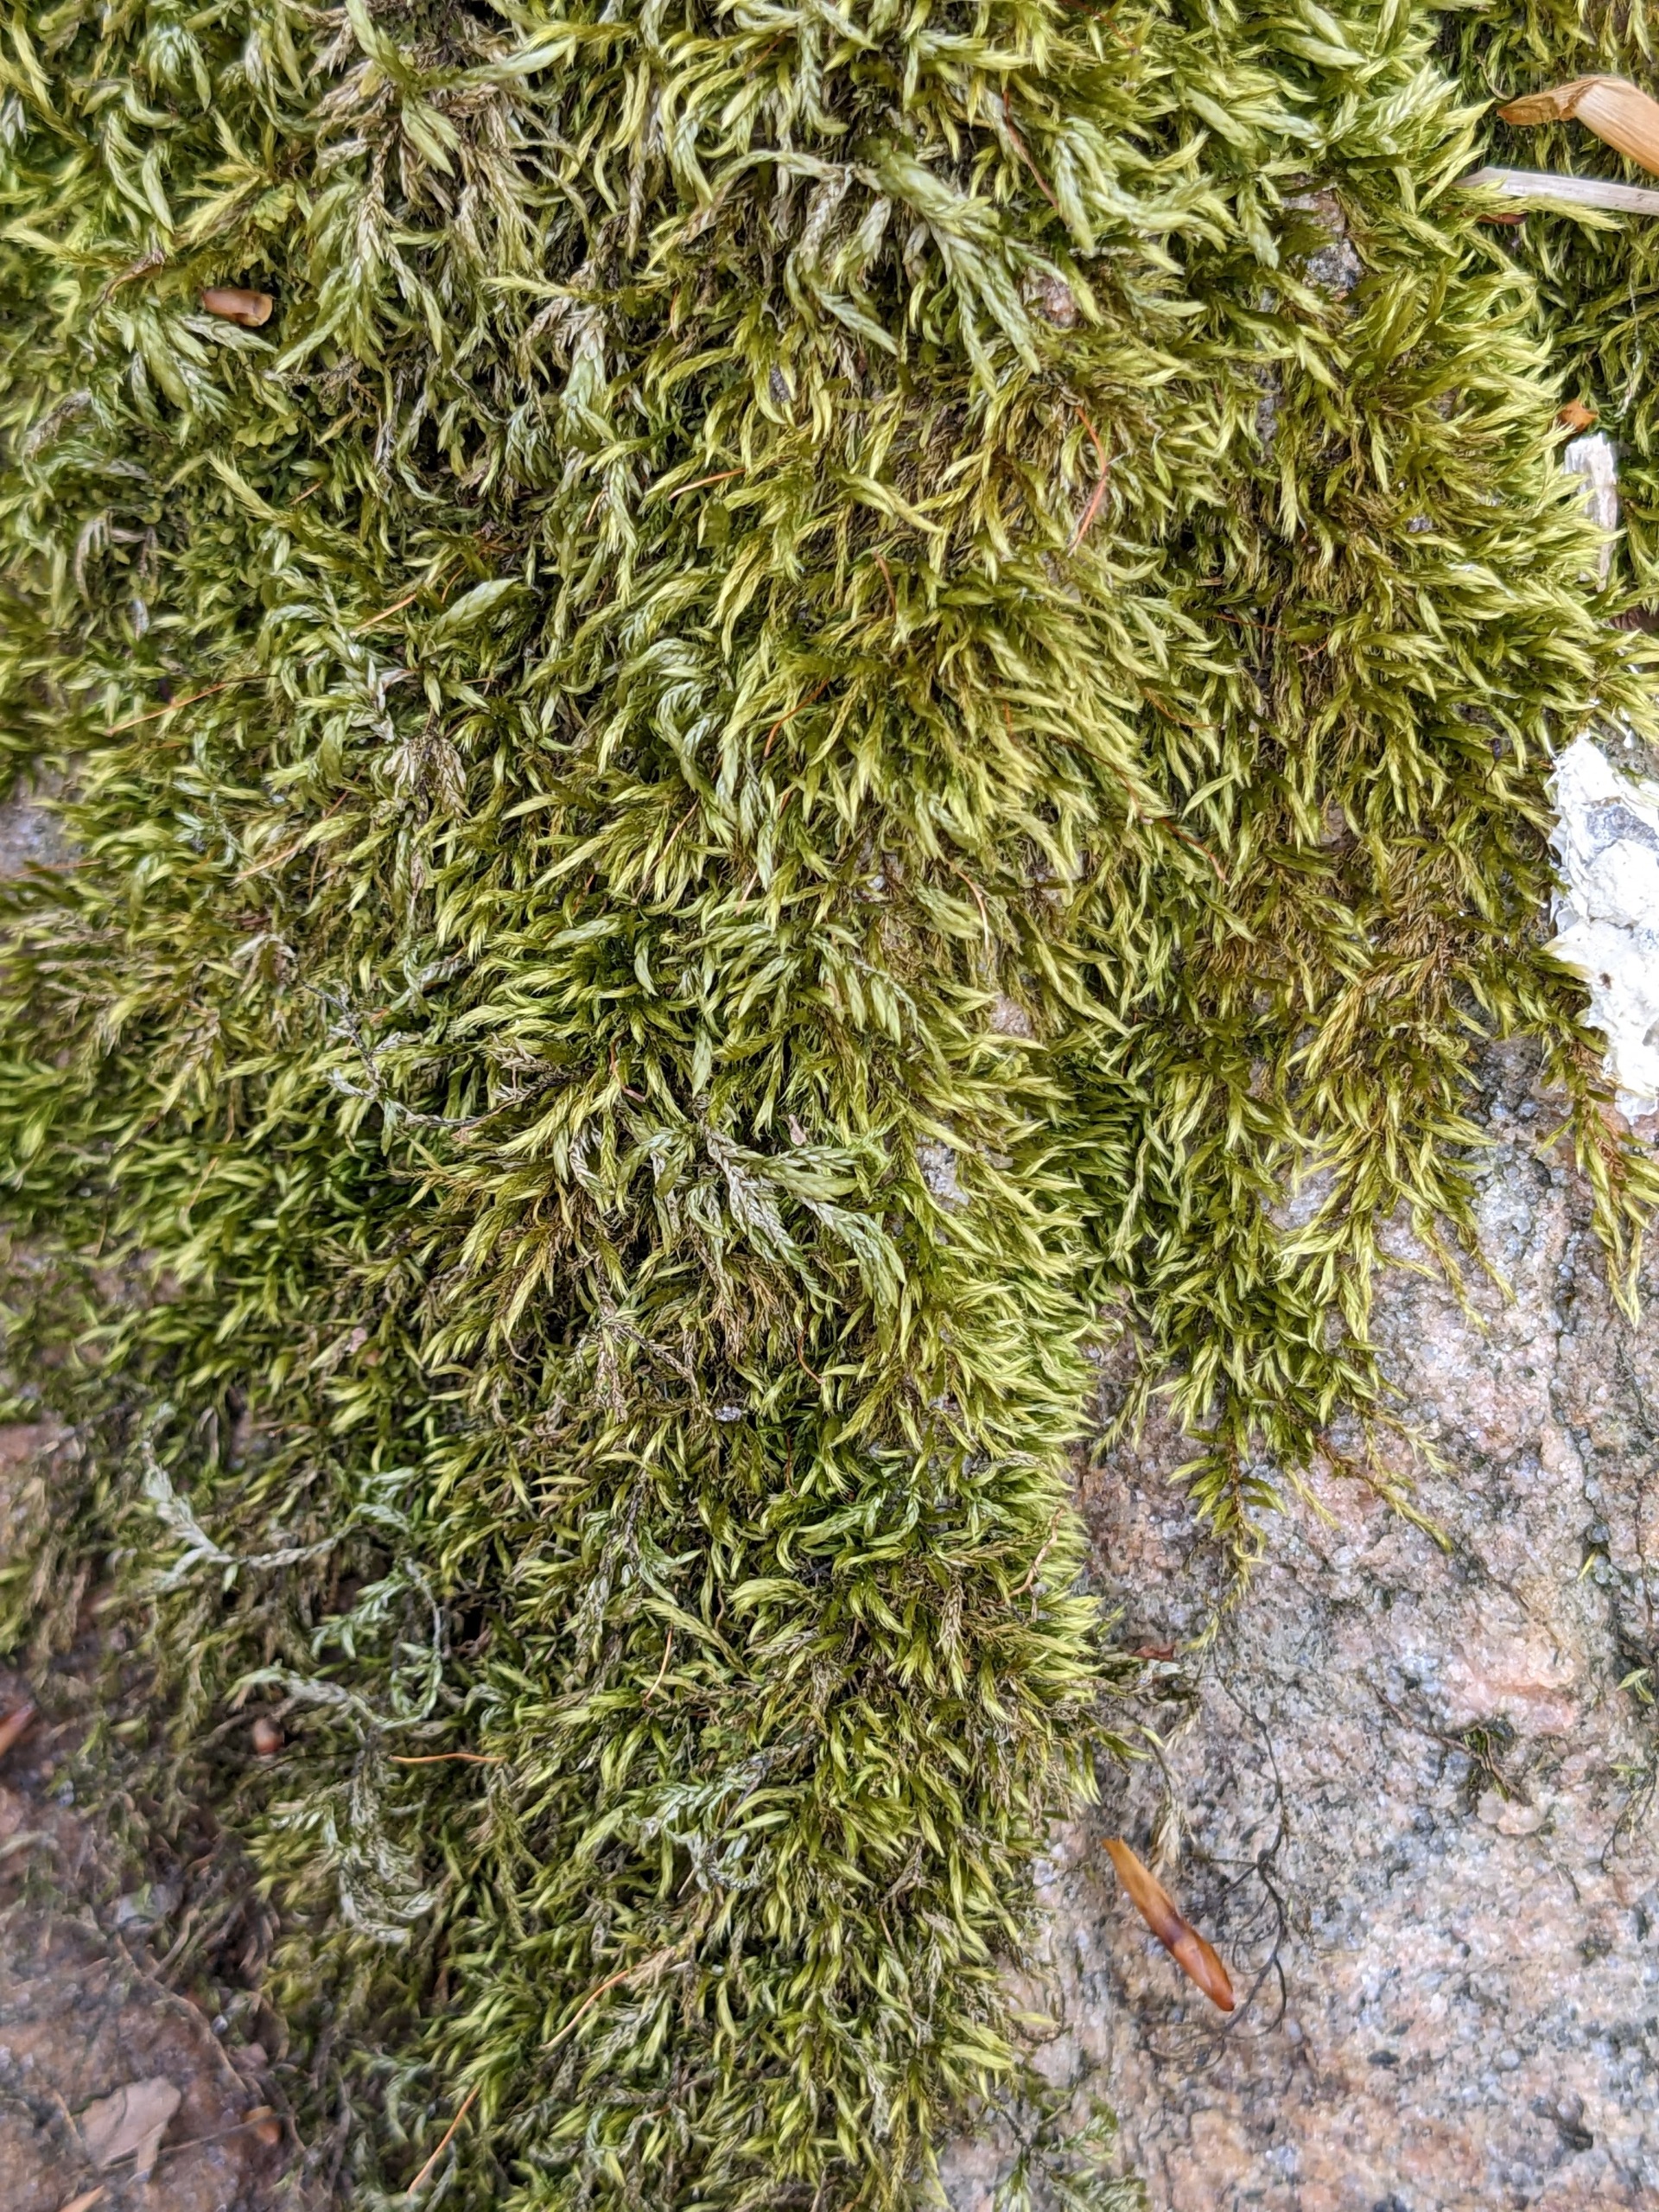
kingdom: Plantae
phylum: Bryophyta
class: Bryopsida
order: Hypnales
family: Brachytheciaceae
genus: Sciuro-hypnum
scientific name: Sciuro-hypnum populeum
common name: Park-kortkapsel
